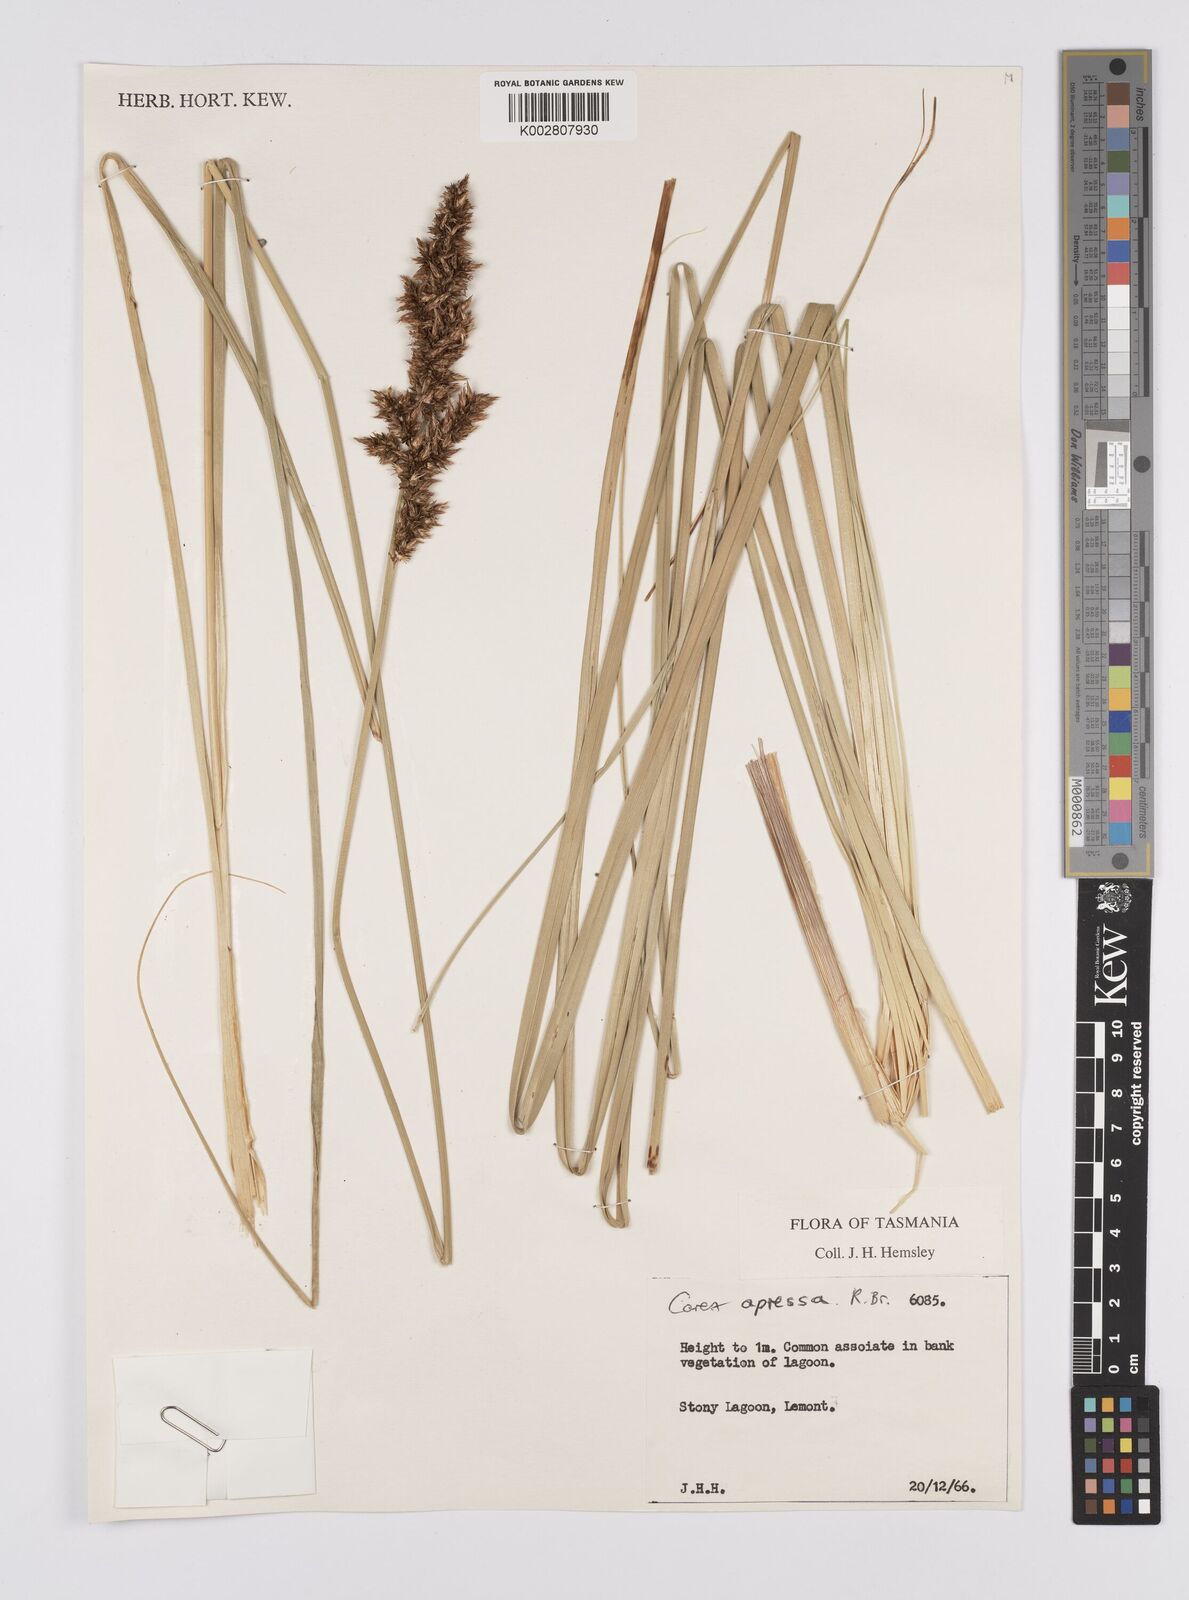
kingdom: Plantae
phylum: Tracheophyta
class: Liliopsida
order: Poales
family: Cyperaceae
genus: Carex
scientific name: Carex appressa
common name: Tussock sedge
